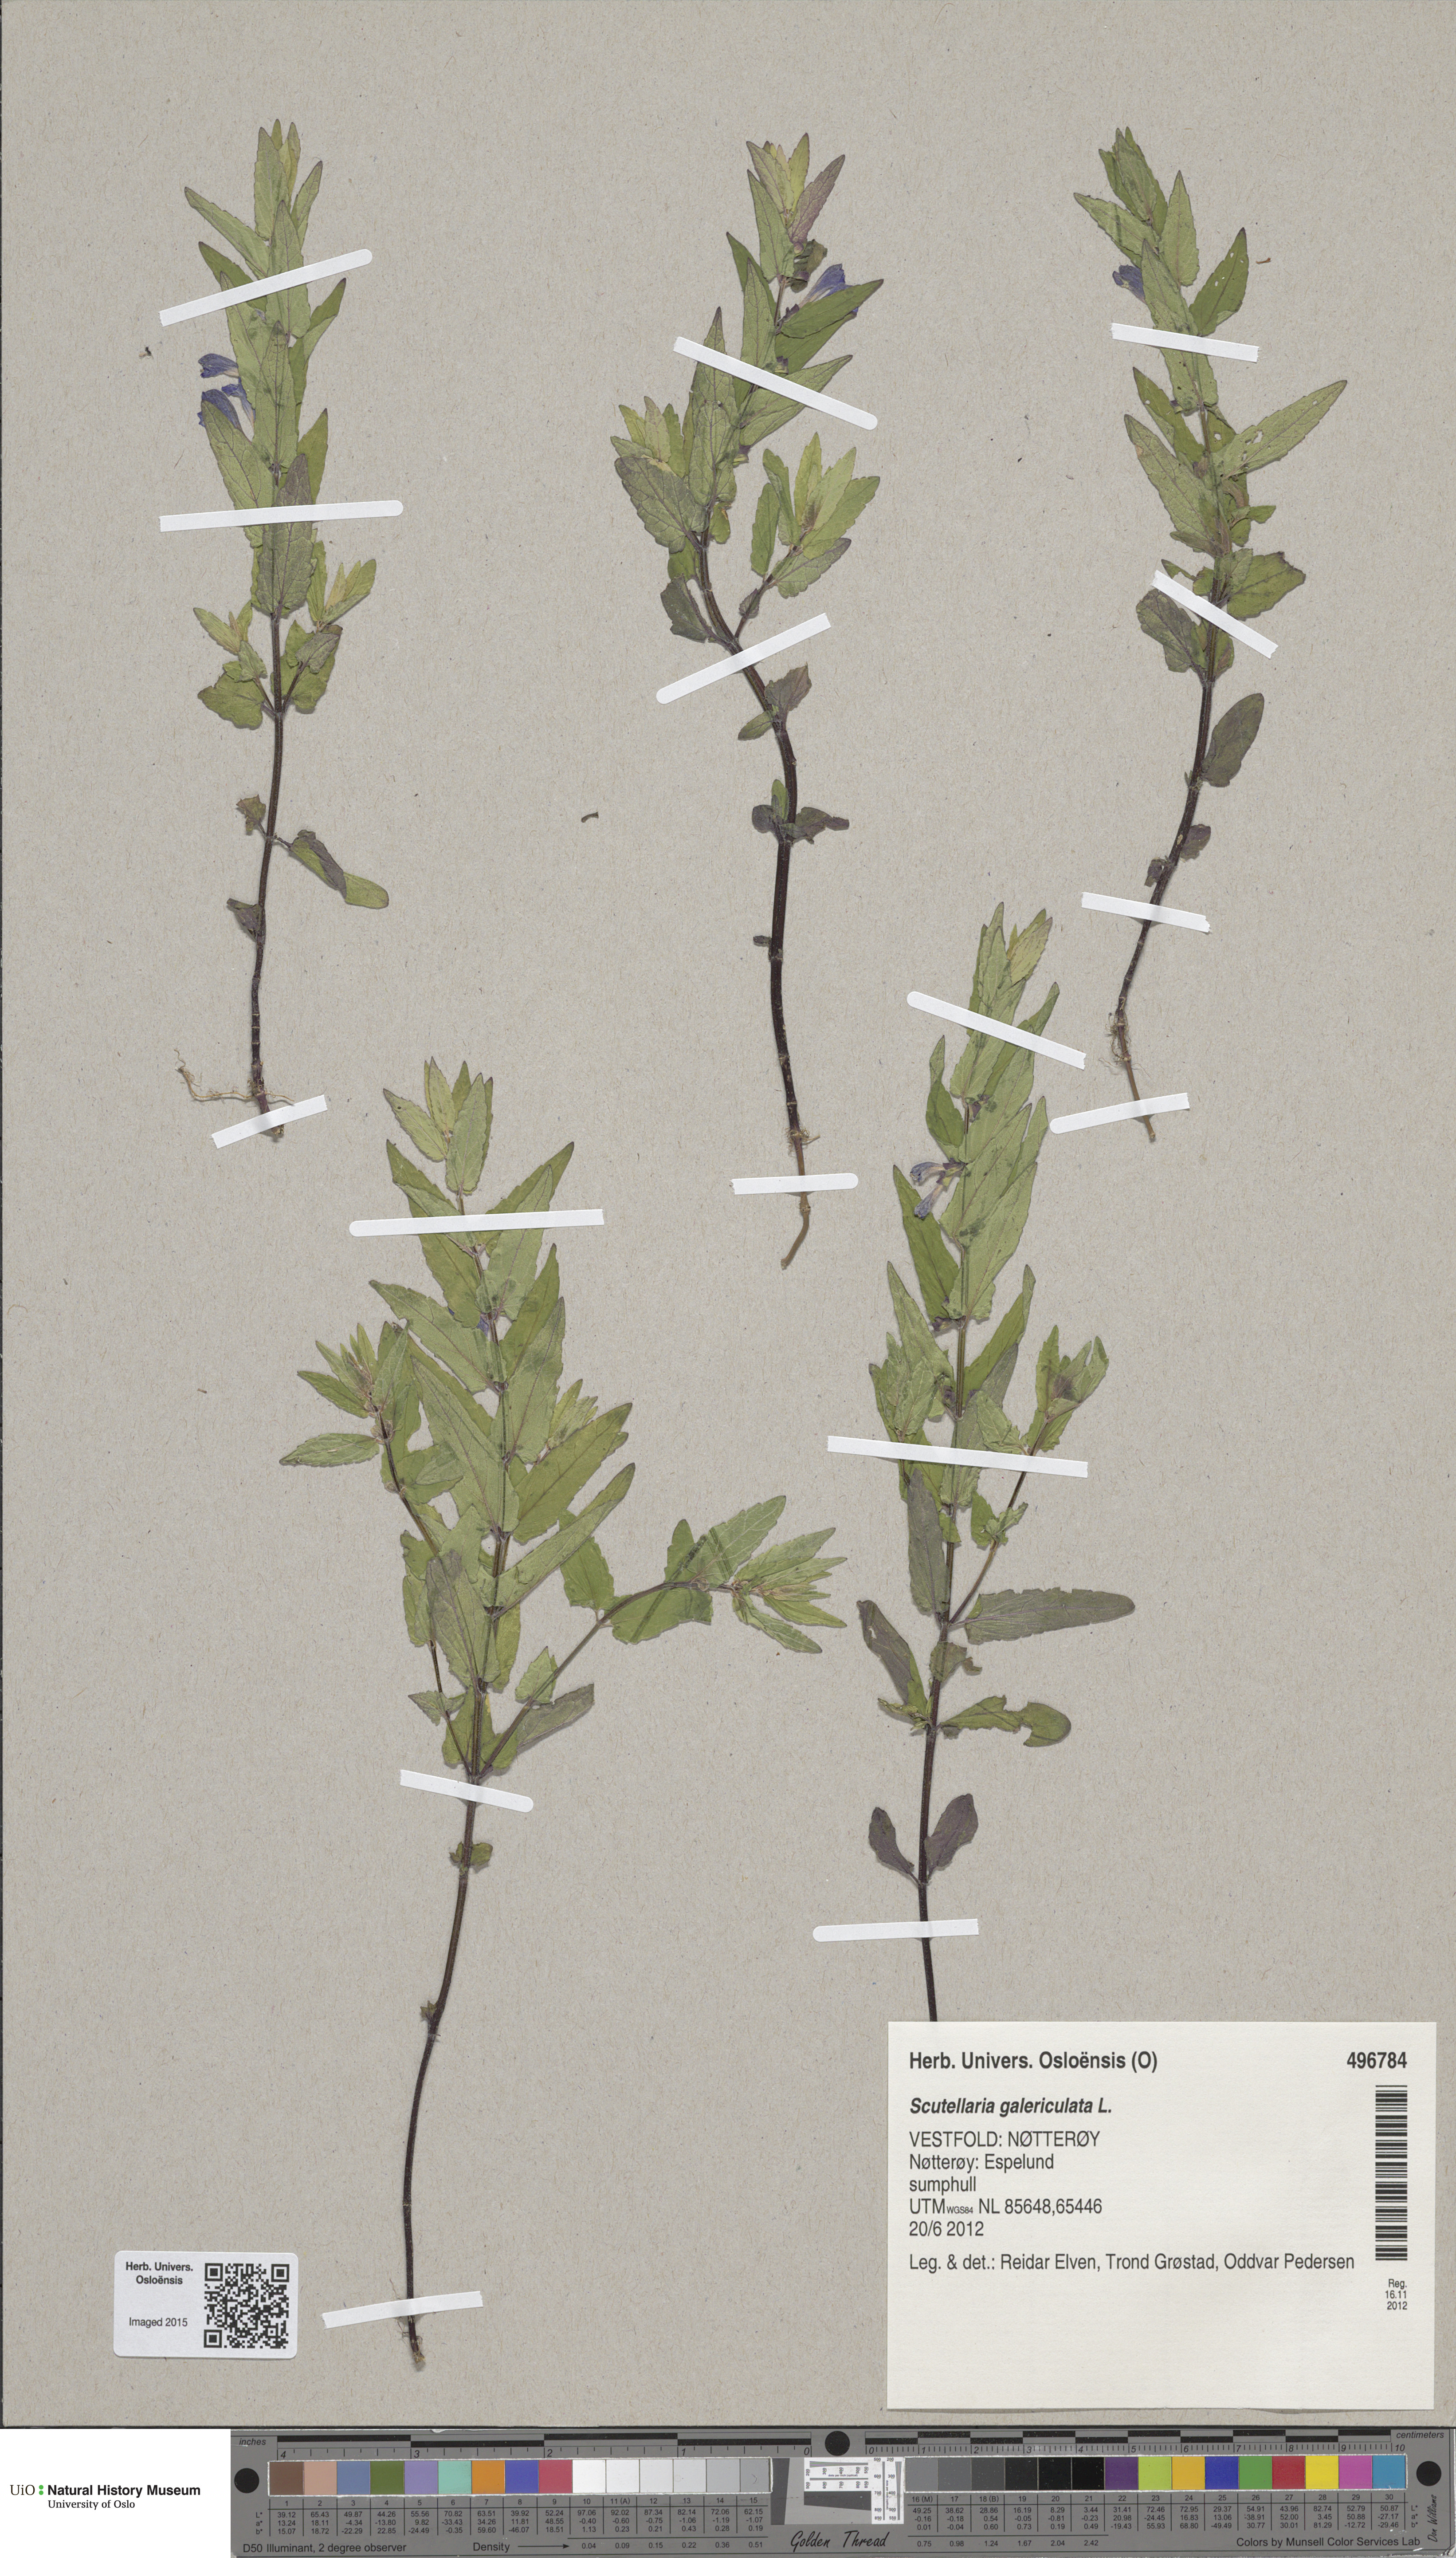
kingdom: Plantae
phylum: Tracheophyta
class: Magnoliopsida
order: Lamiales
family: Lamiaceae
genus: Scutellaria
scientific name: Scutellaria galericulata
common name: Skullcap
